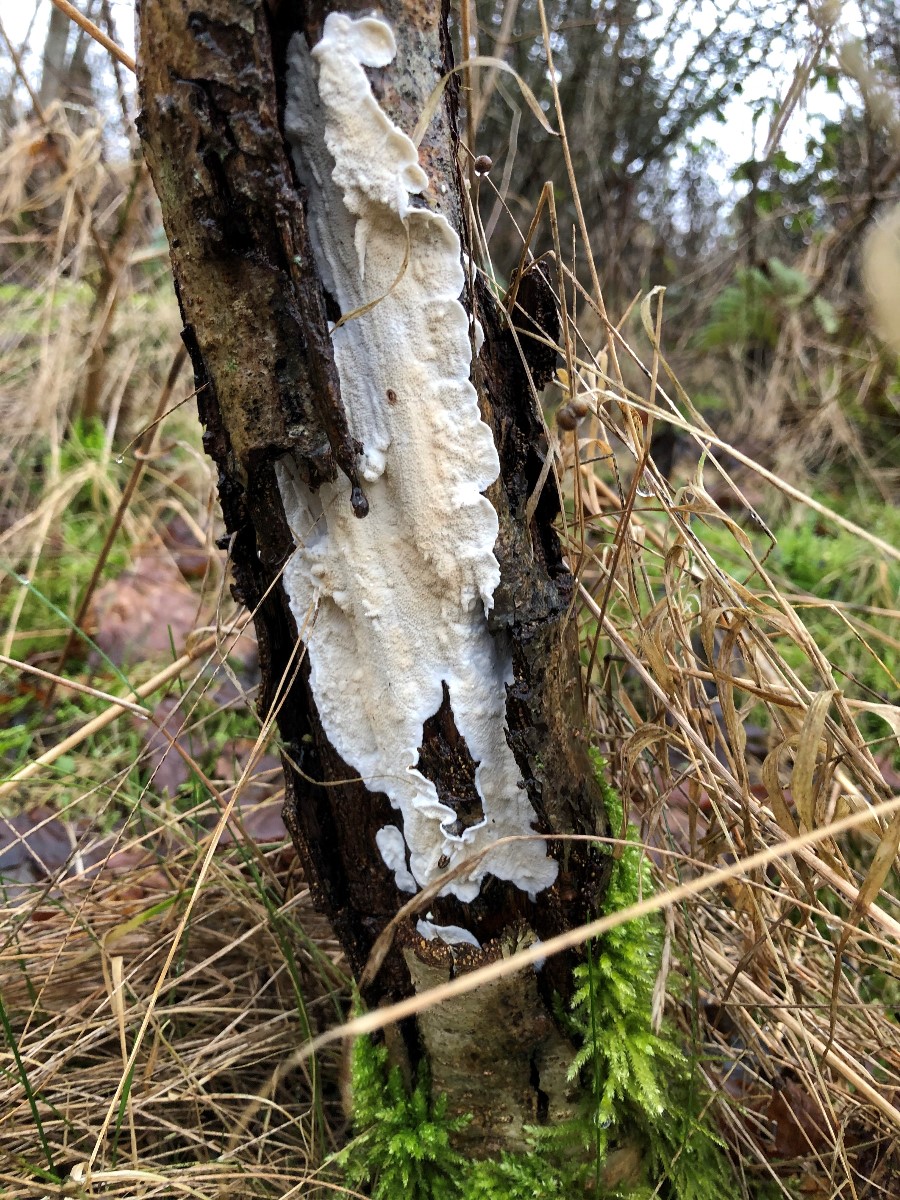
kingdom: Fungi
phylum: Basidiomycota
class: Agaricomycetes
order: Polyporales
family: Irpicaceae
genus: Byssomerulius
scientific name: Byssomerulius corium
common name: læder-åresvamp
